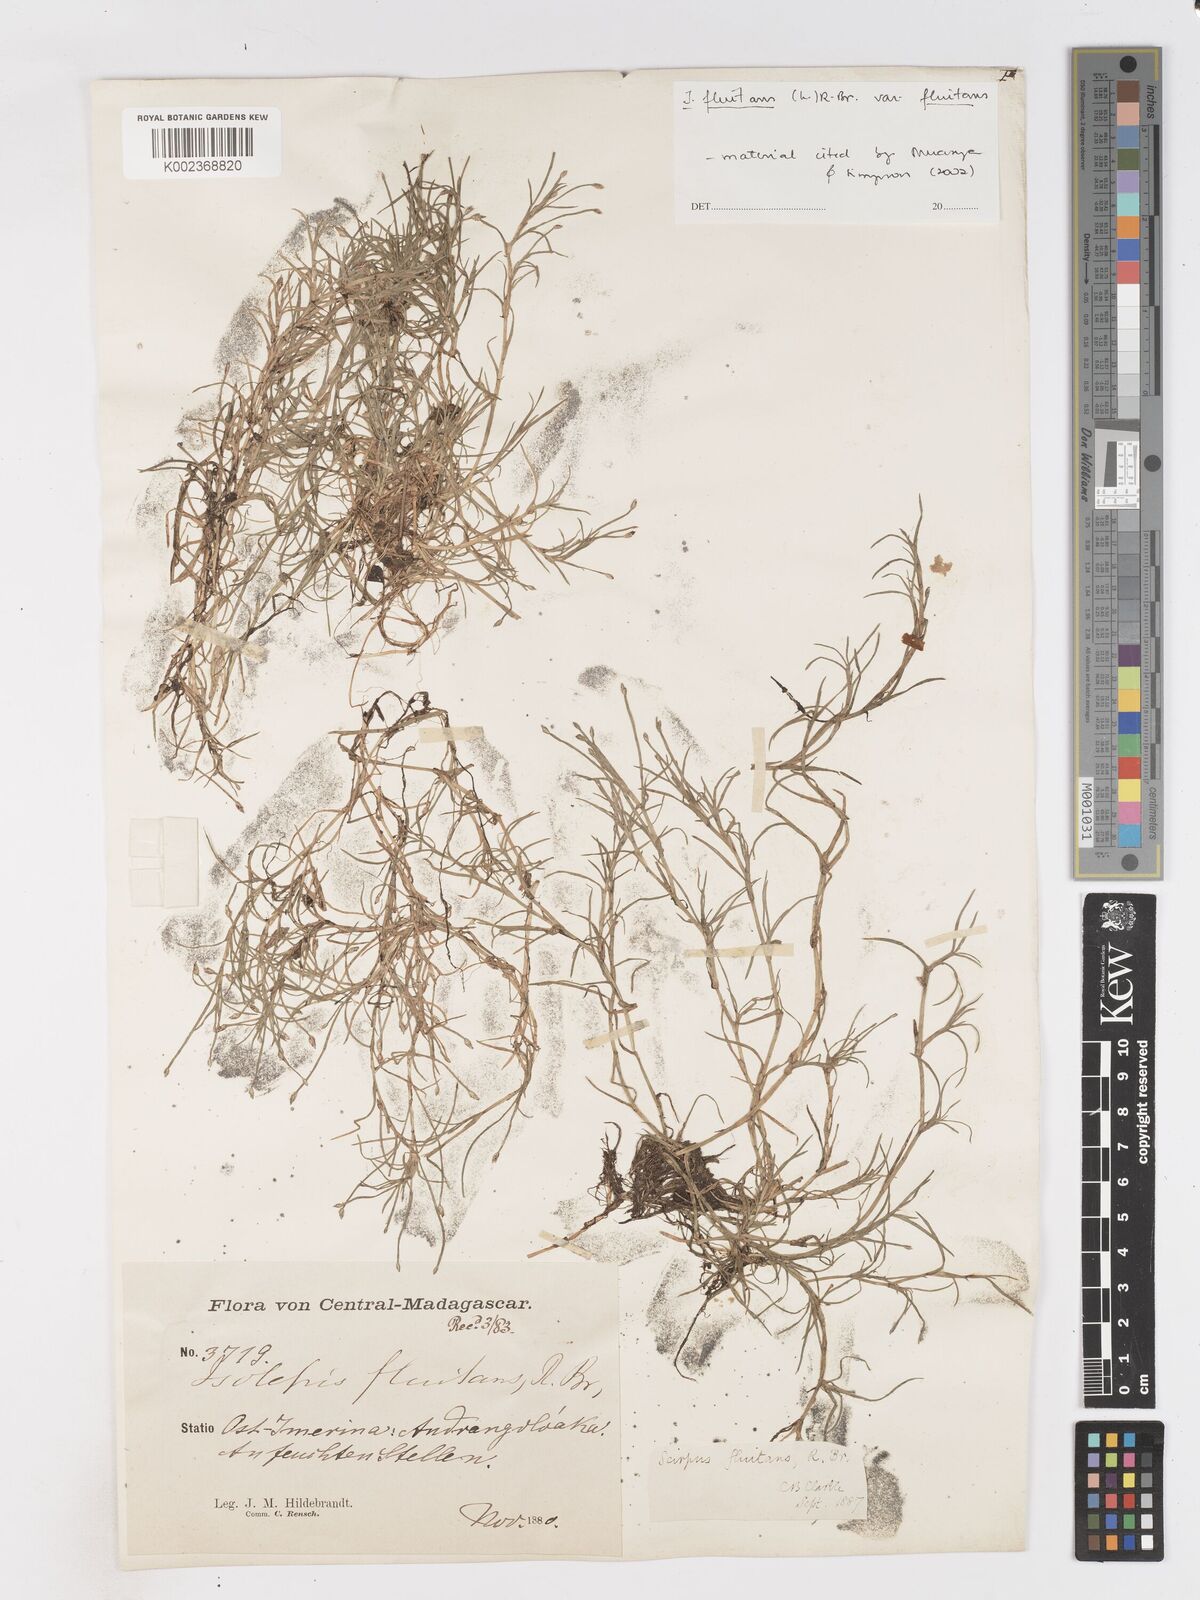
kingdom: Plantae
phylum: Tracheophyta
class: Liliopsida
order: Poales
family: Cyperaceae
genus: Isolepis
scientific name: Isolepis fluitans
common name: Floating club-rush
